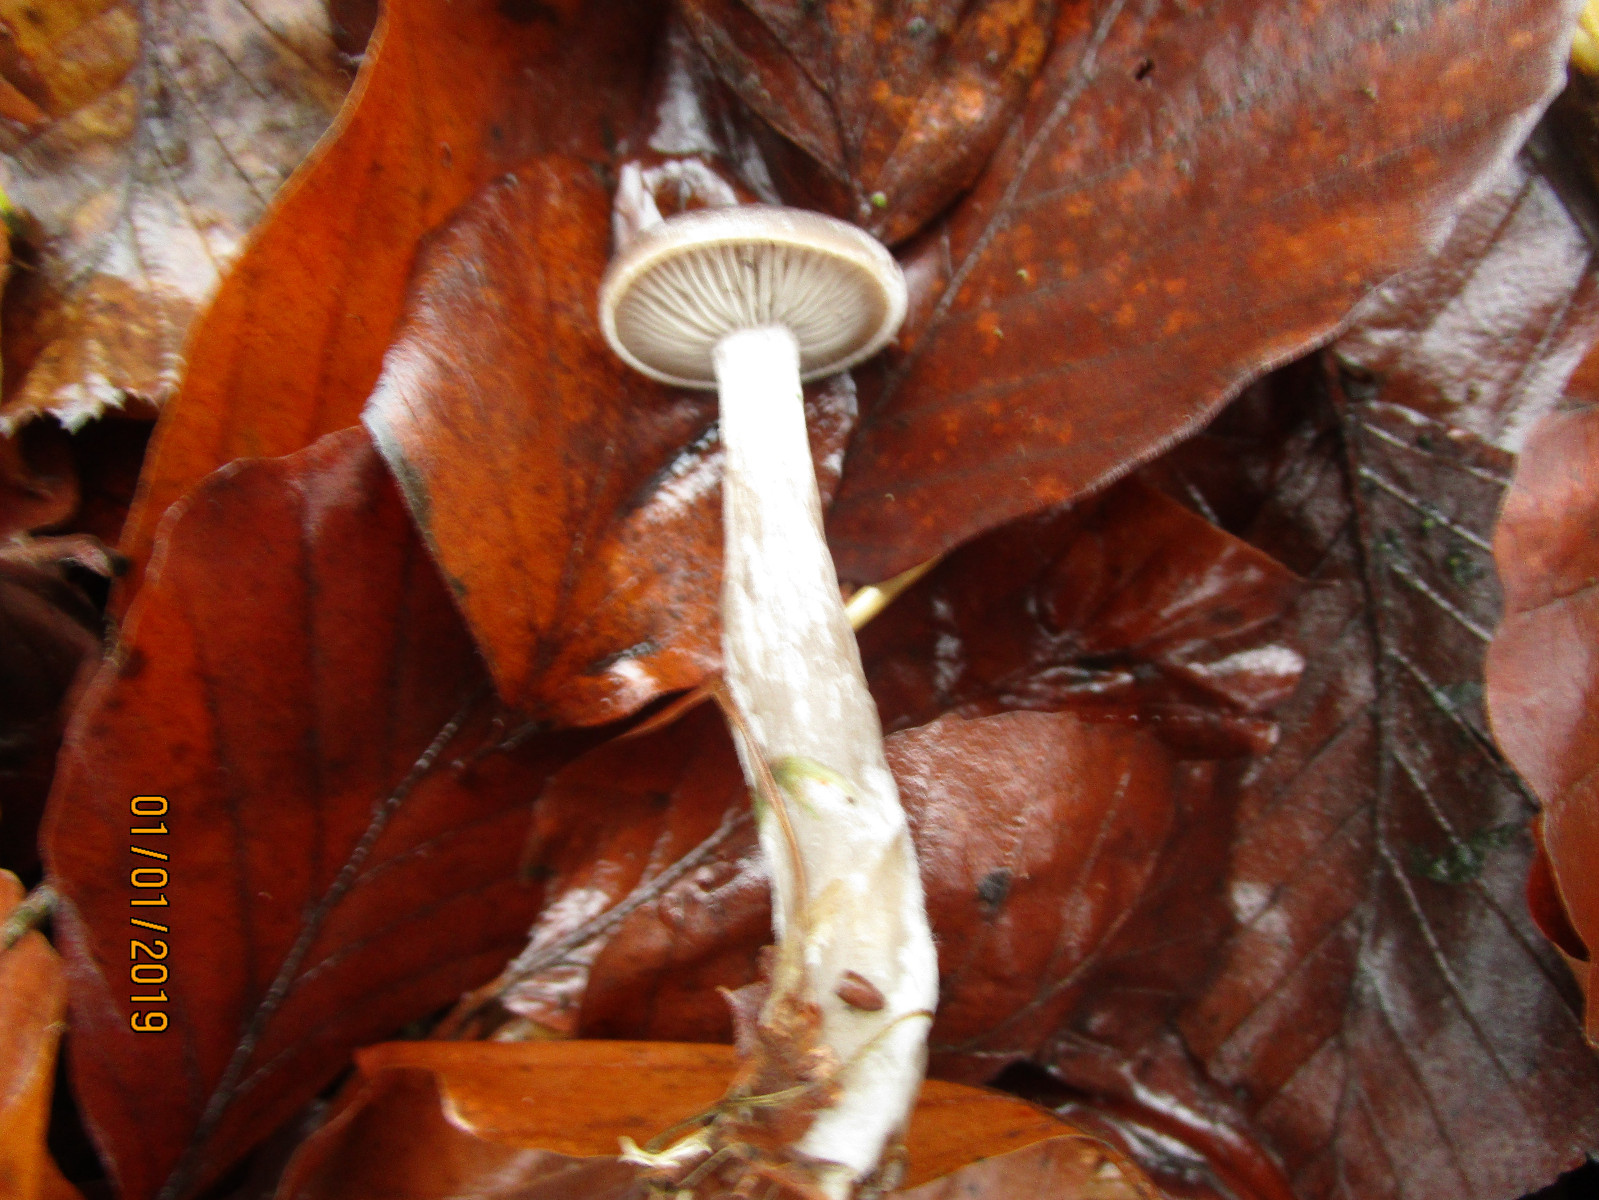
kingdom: Fungi
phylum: Basidiomycota
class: Agaricomycetes
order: Agaricales
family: Pseudoclitocybaceae
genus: Pseudoclitocybe
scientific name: Pseudoclitocybe cyathiformis
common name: almindelig bægertragthat
